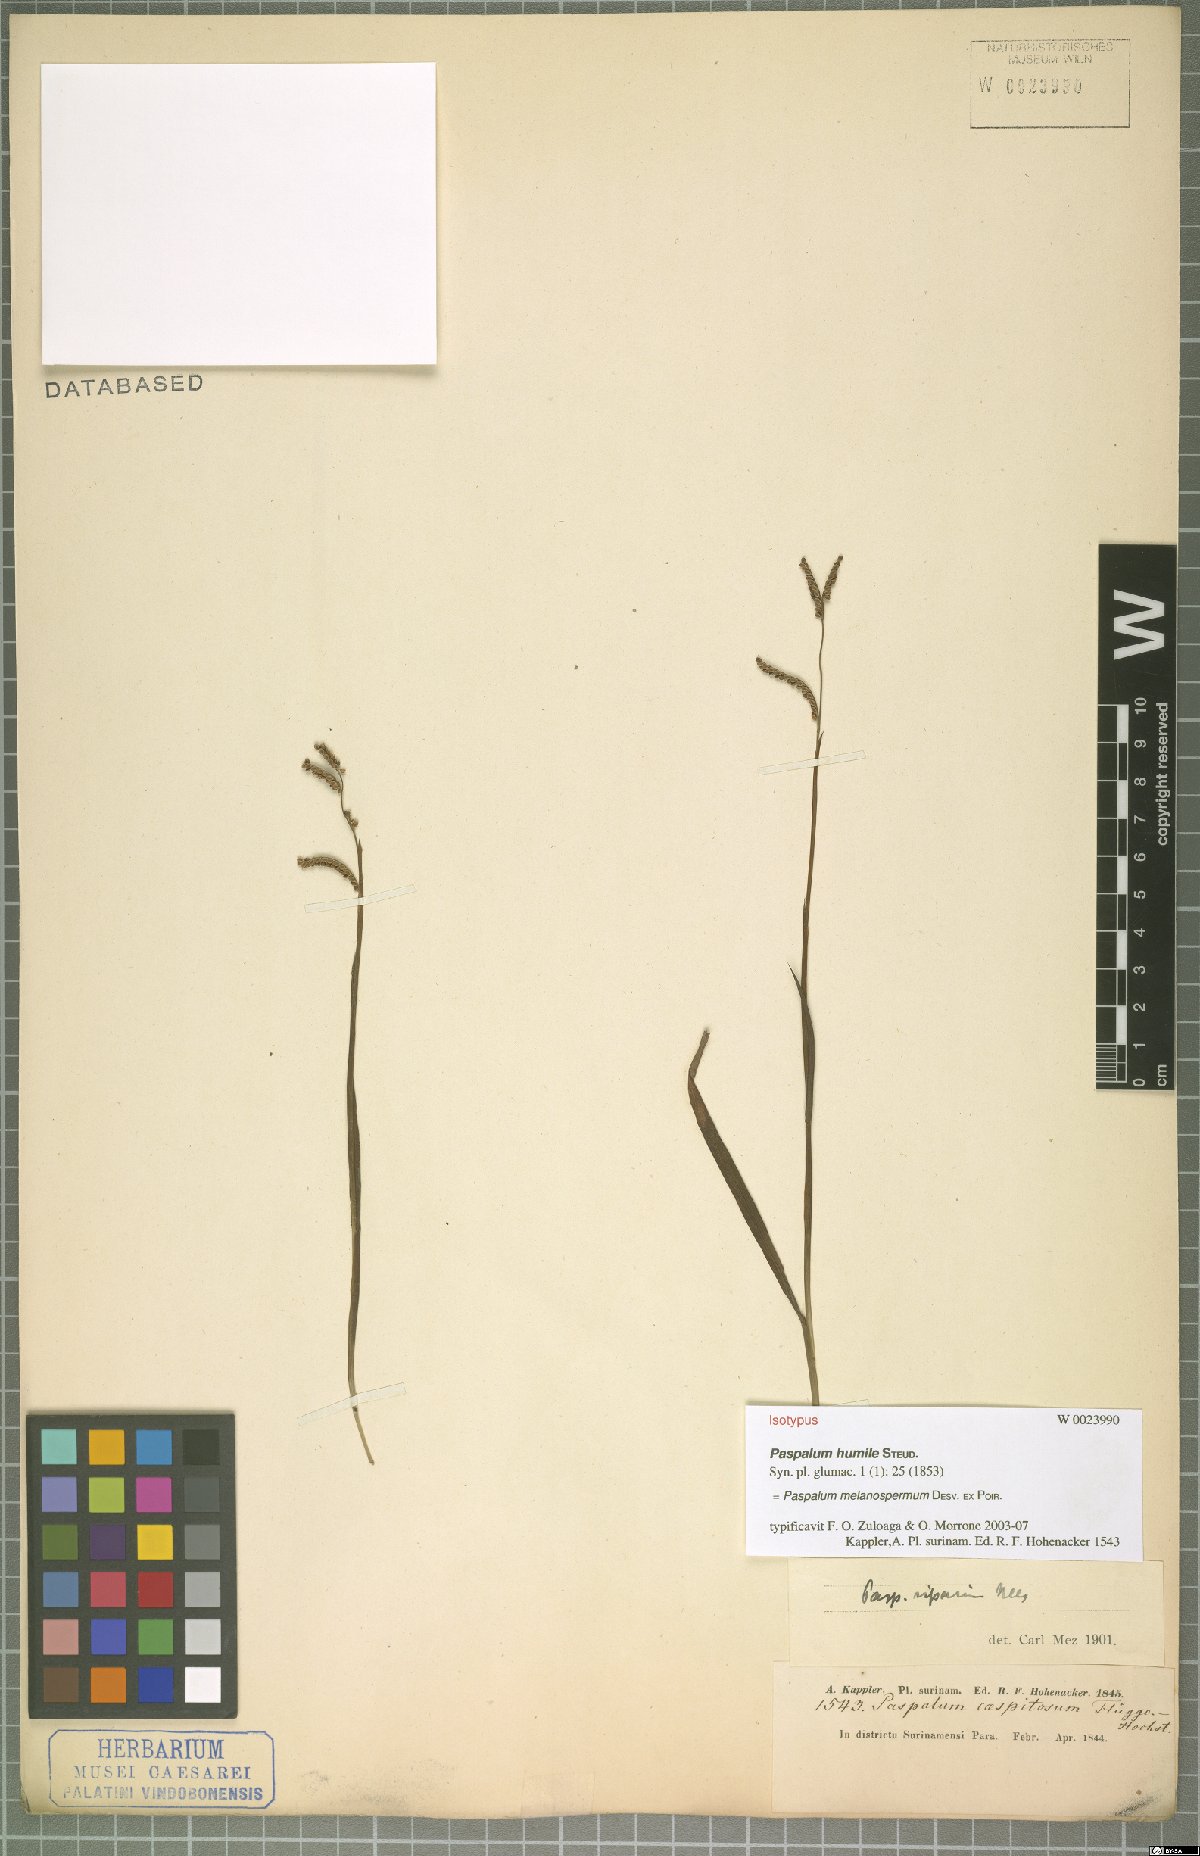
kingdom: Plantae
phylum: Tracheophyta
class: Liliopsida
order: Poales
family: Poaceae
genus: Paspalum
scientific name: Paspalum melanospermum
